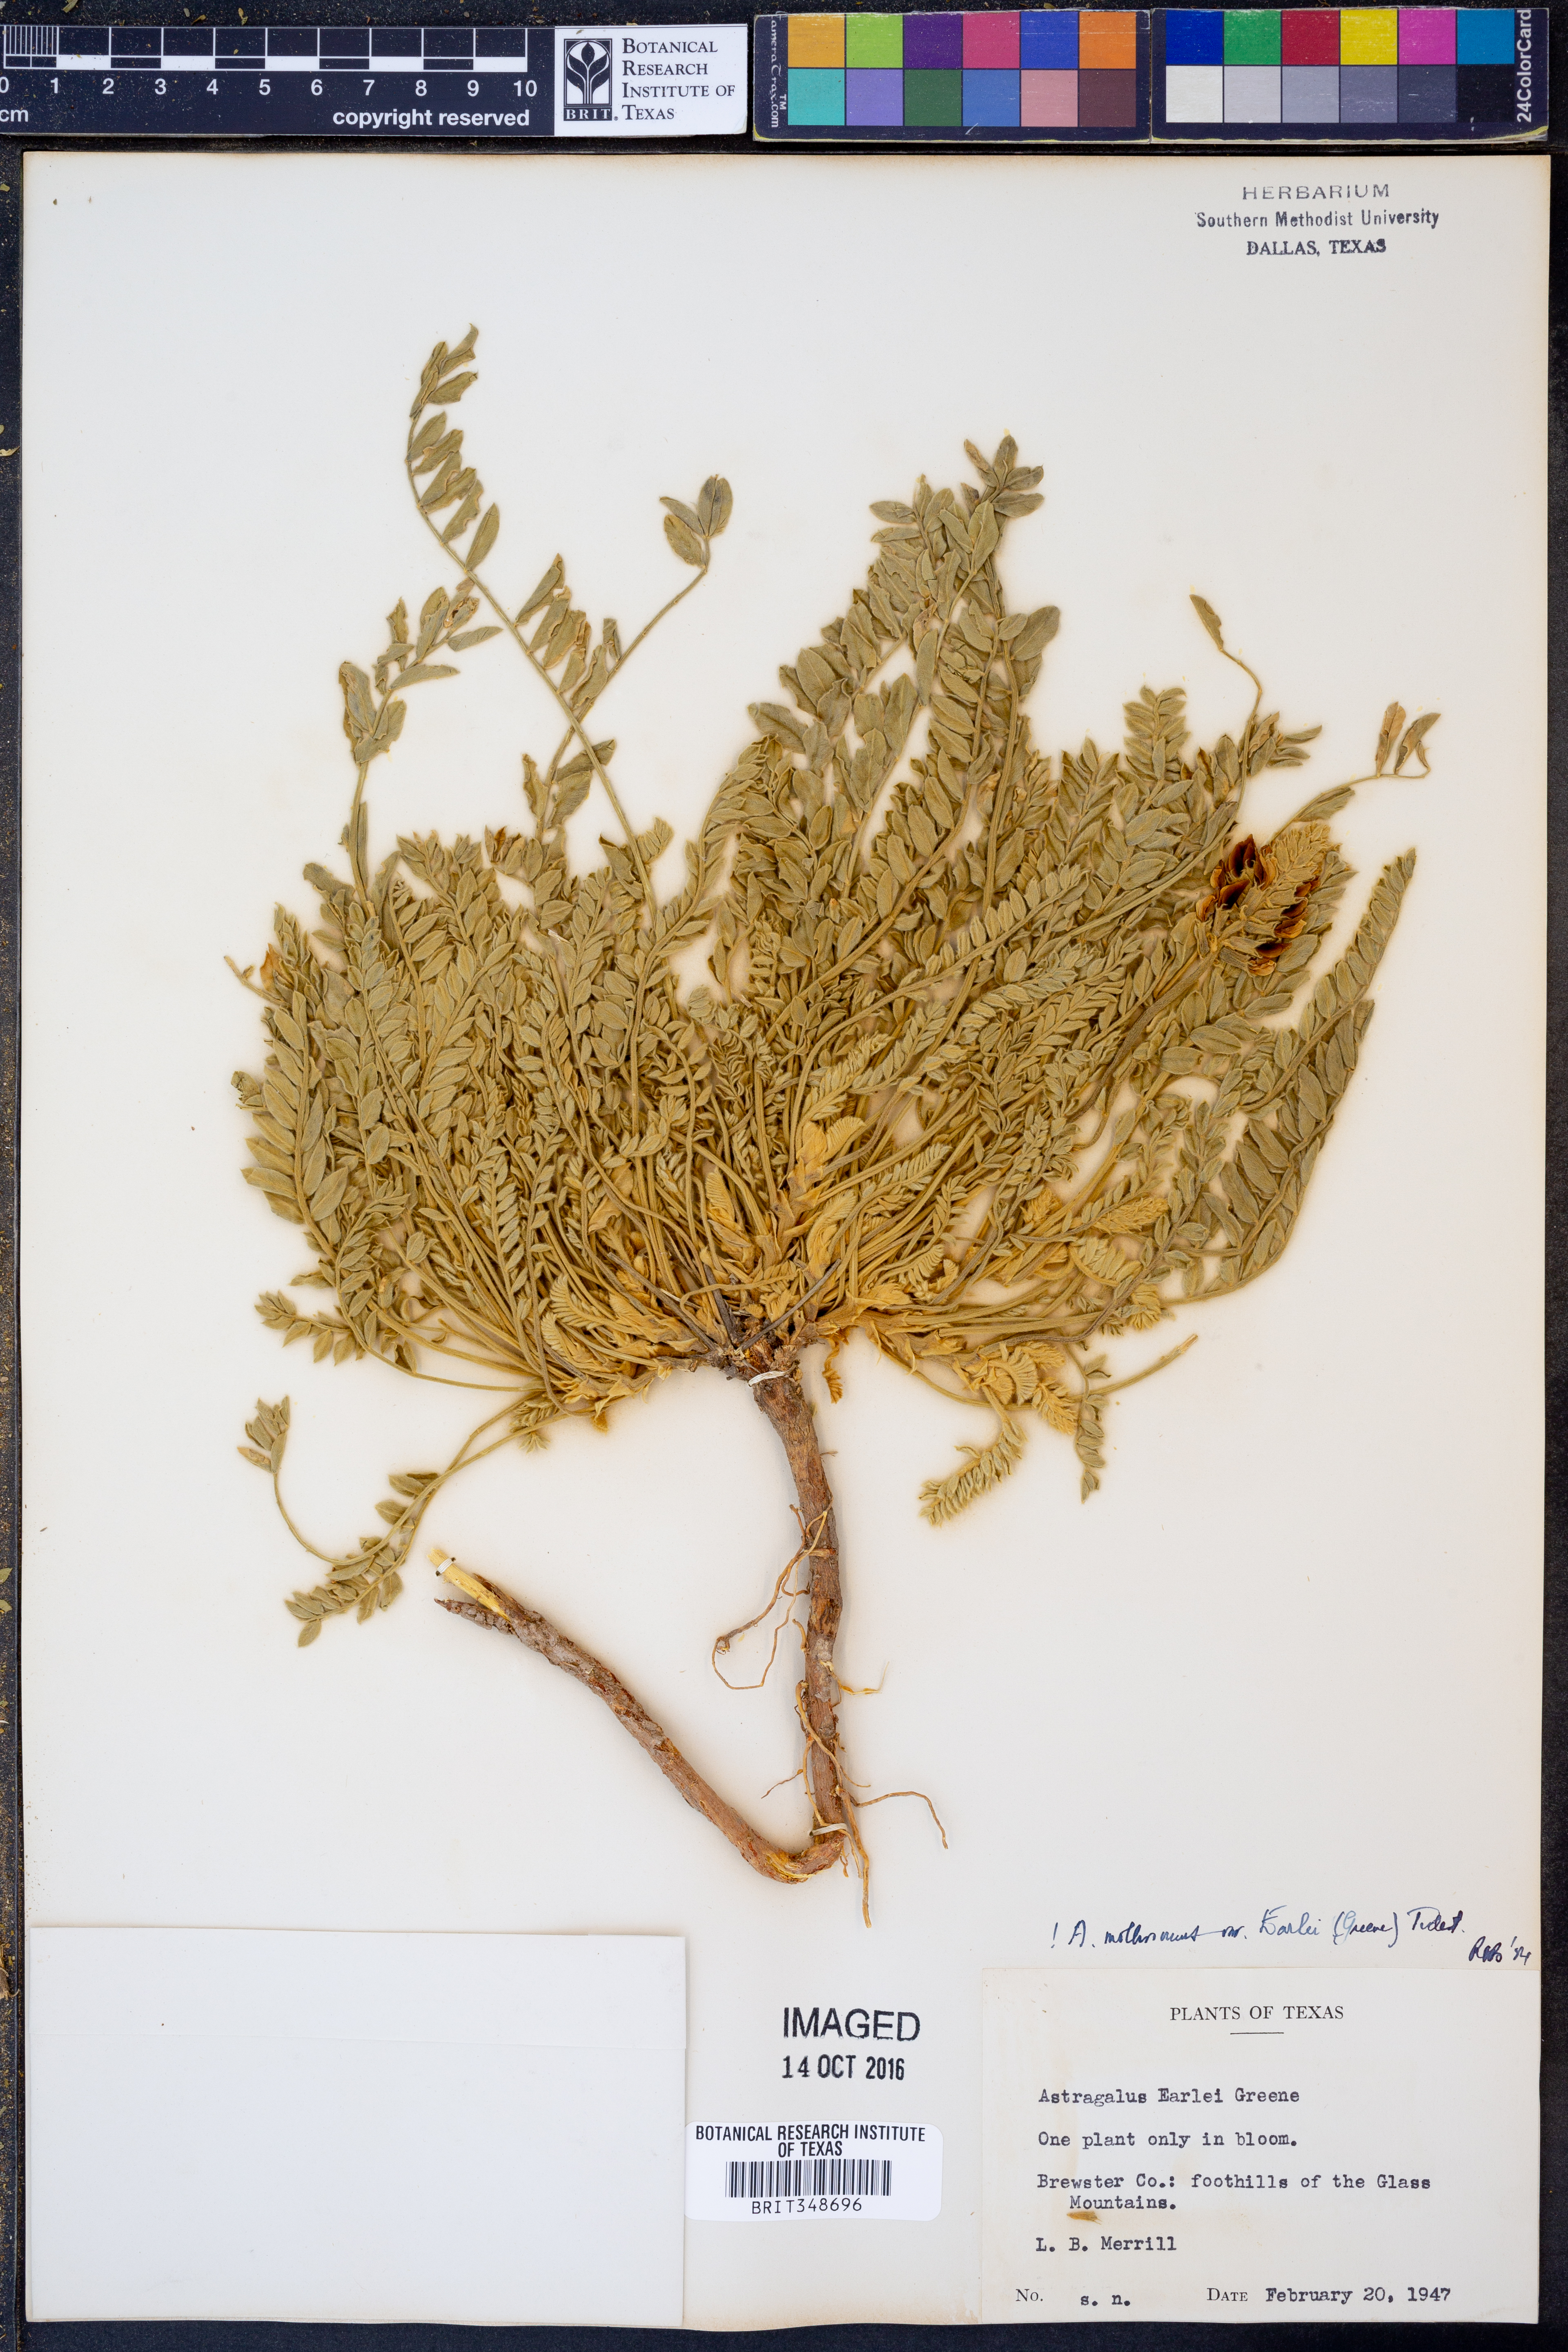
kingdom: Plantae
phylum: Tracheophyta
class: Magnoliopsida
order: Fabales
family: Fabaceae
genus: Astragalus
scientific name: Astragalus mollissimus
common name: Woolly locoweed
